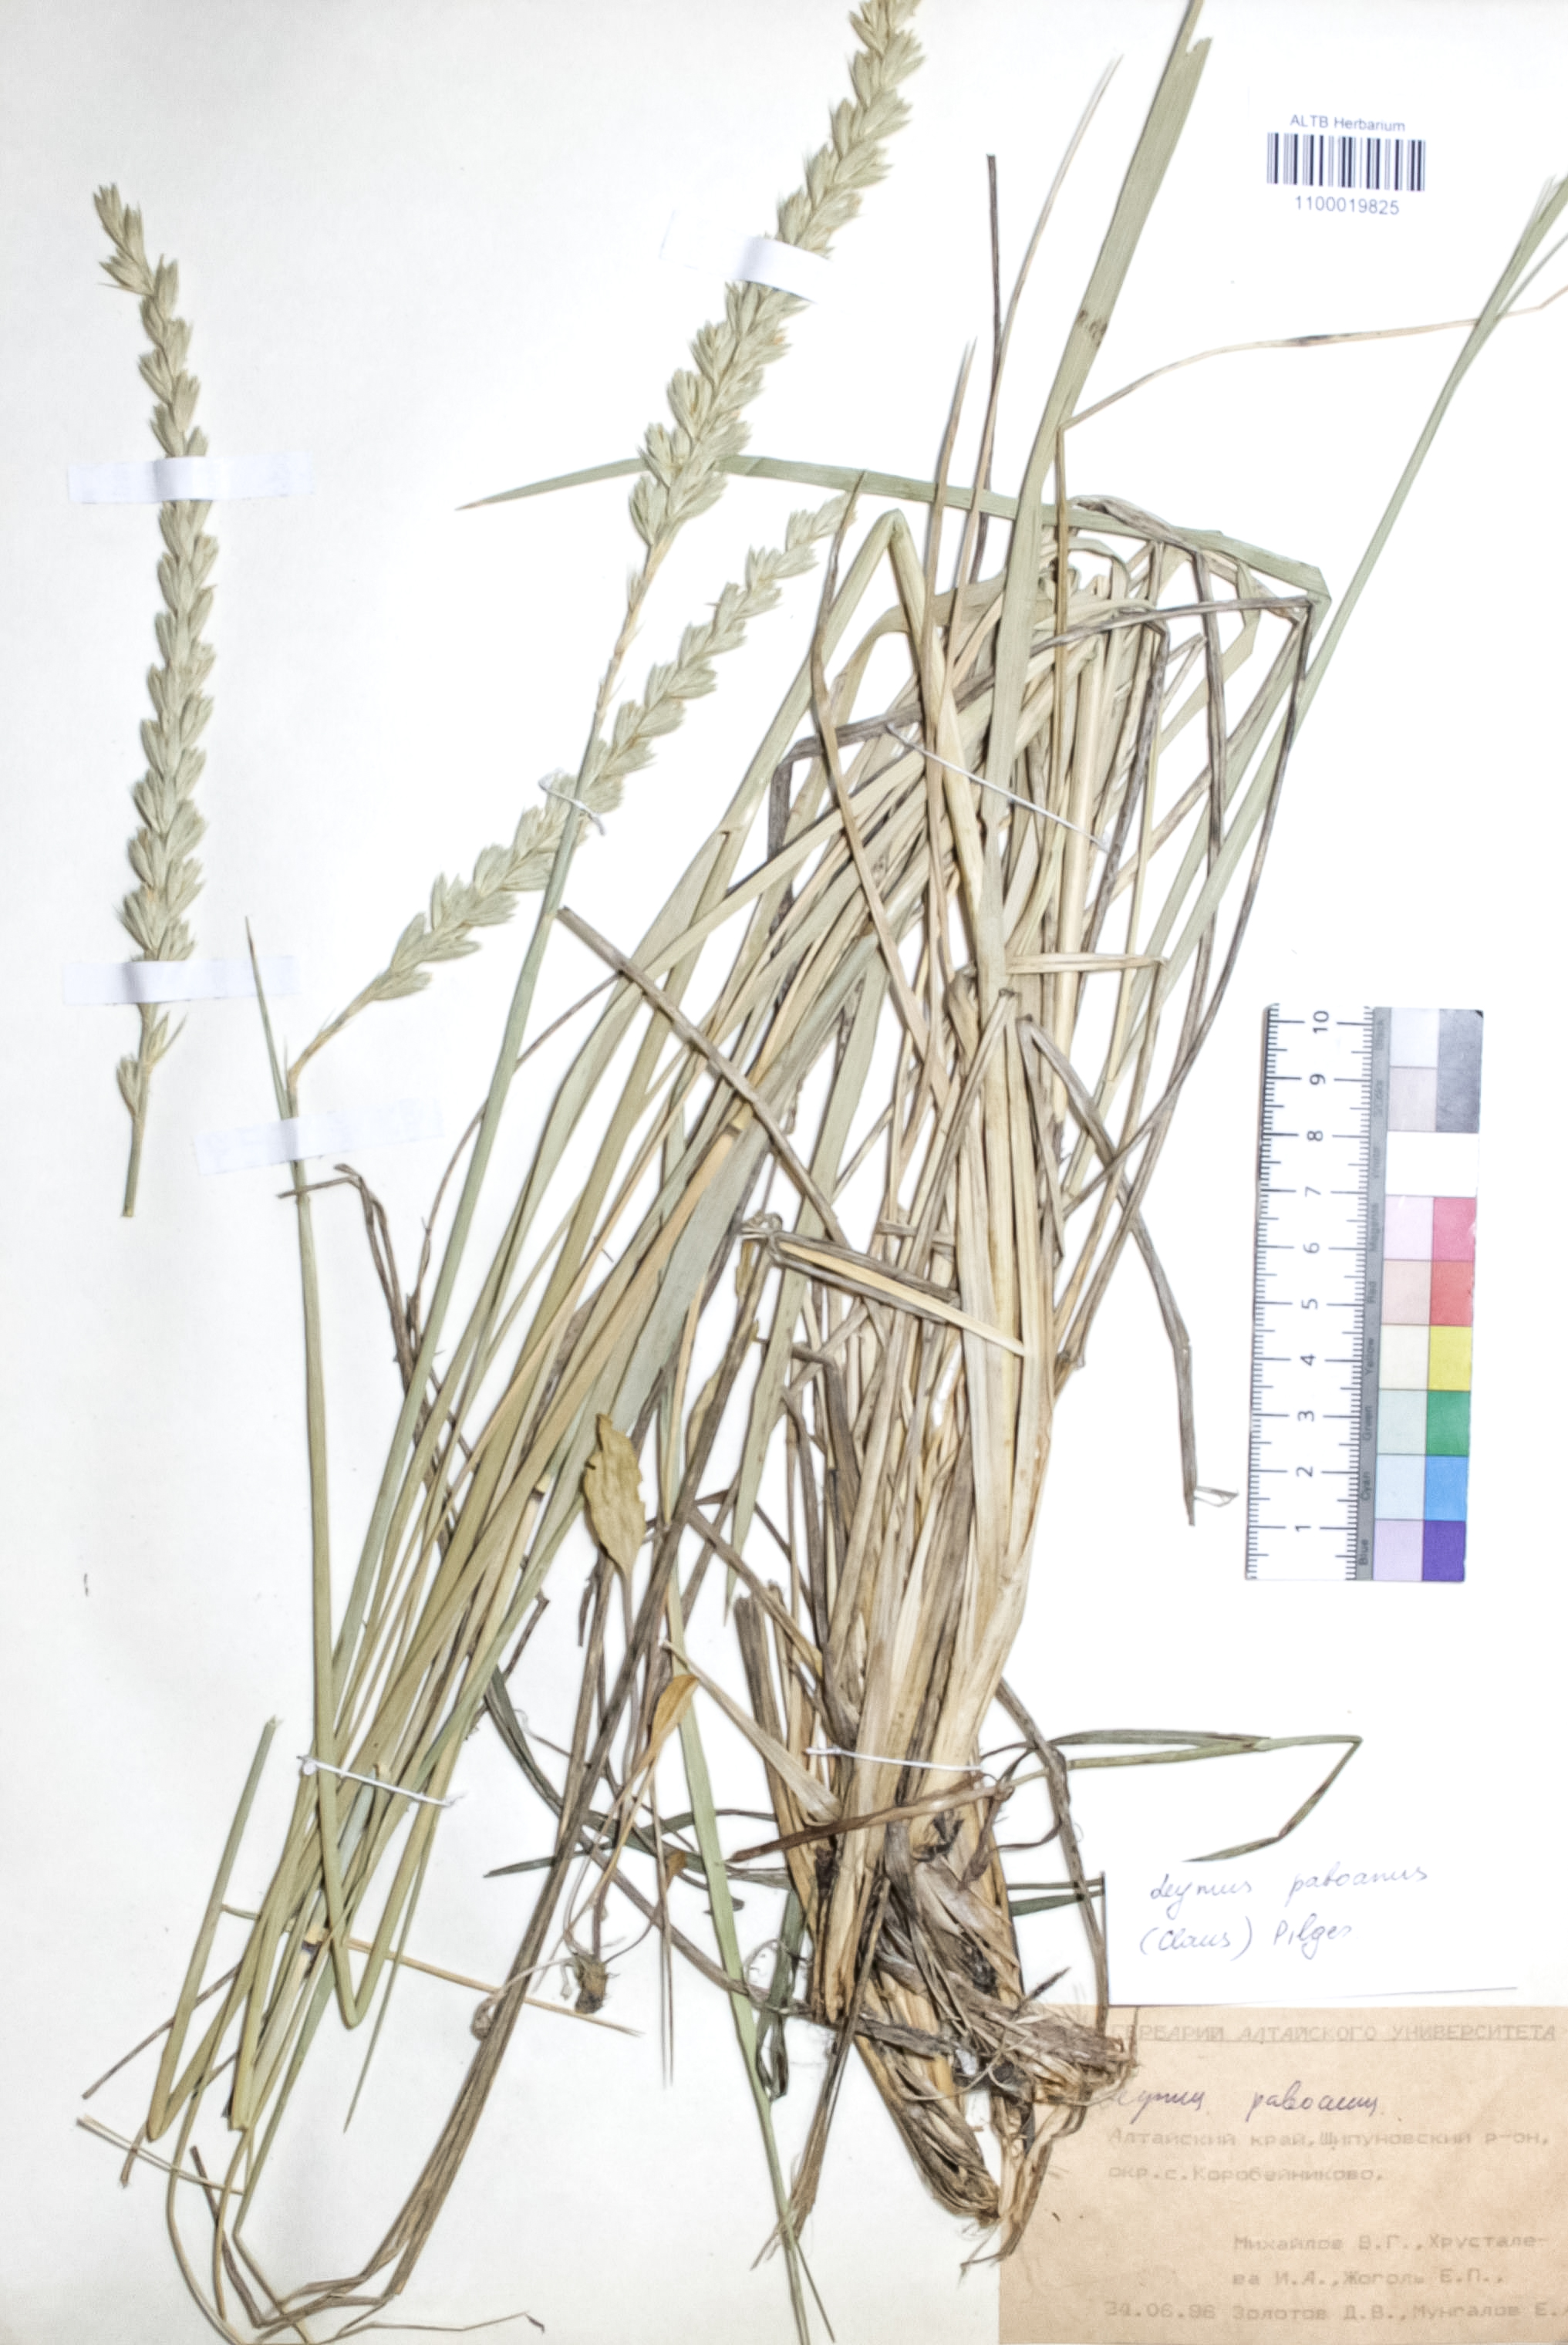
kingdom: Plantae
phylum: Tracheophyta
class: Liliopsida
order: Poales
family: Poaceae
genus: Leymus
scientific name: Leymus paboanus
